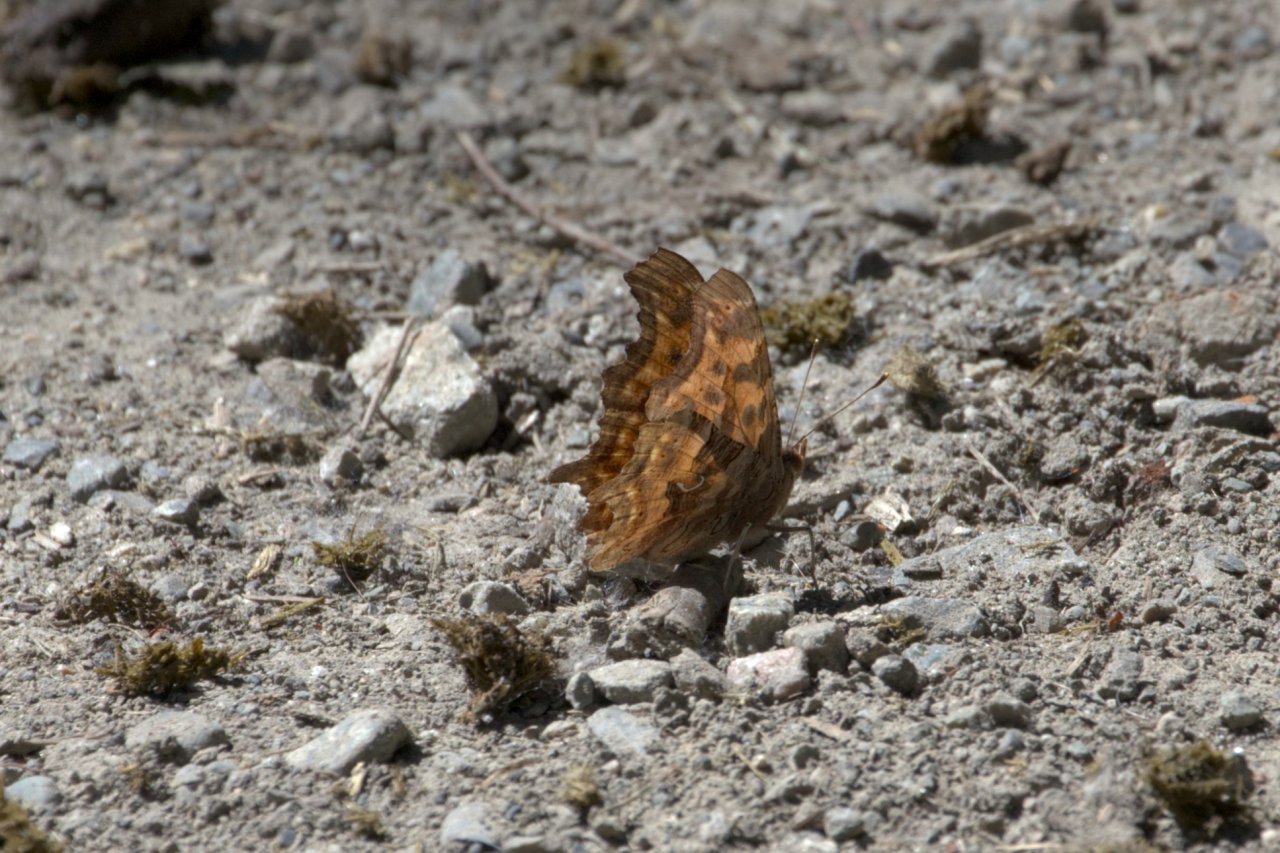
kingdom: Animalia
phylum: Arthropoda
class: Insecta
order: Lepidoptera
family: Nymphalidae
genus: Polygonia
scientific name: Polygonia satyrus
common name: Satyr Comma
